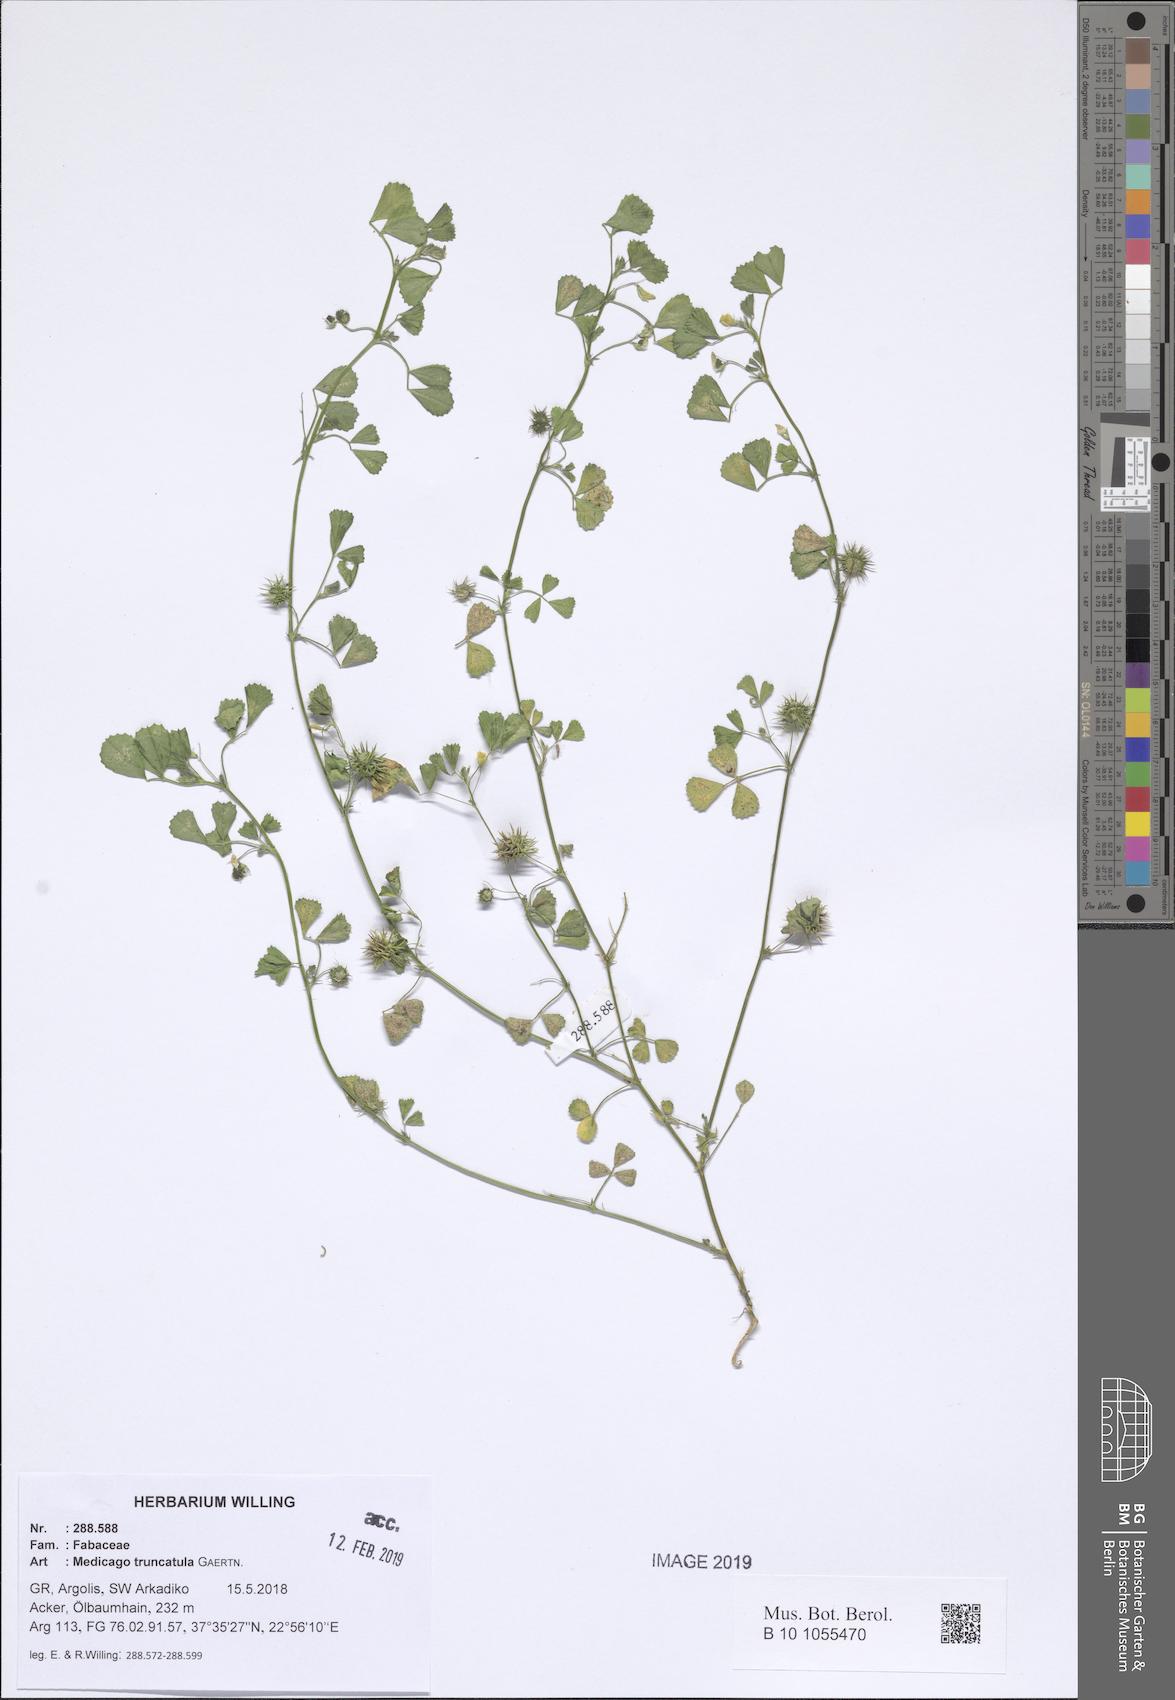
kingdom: Plantae
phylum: Tracheophyta
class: Magnoliopsida
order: Fabales
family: Fabaceae
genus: Medicago
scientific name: Medicago truncatula
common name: Strong-spined medick
